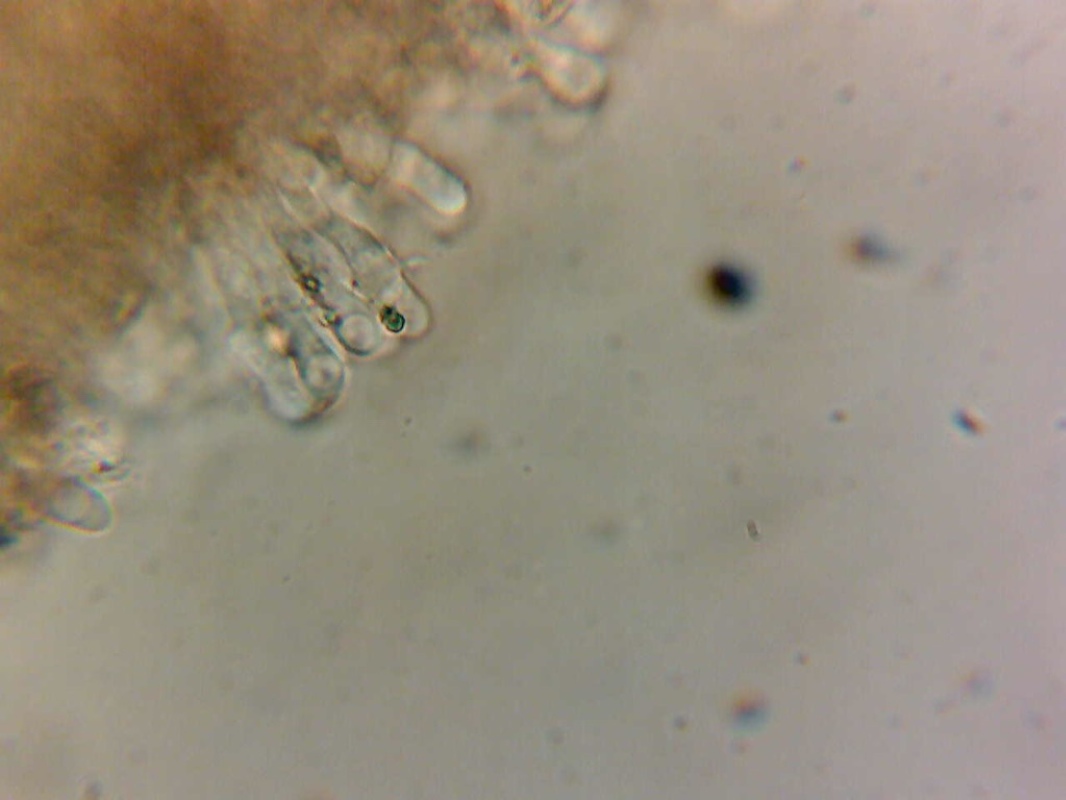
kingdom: Fungi
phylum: Basidiomycota
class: Agaricomycetes
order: Agaricales
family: Omphalotaceae
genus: Gymnopus
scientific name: Gymnopus fuscopurpureus
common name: purpurbrun fladhat
